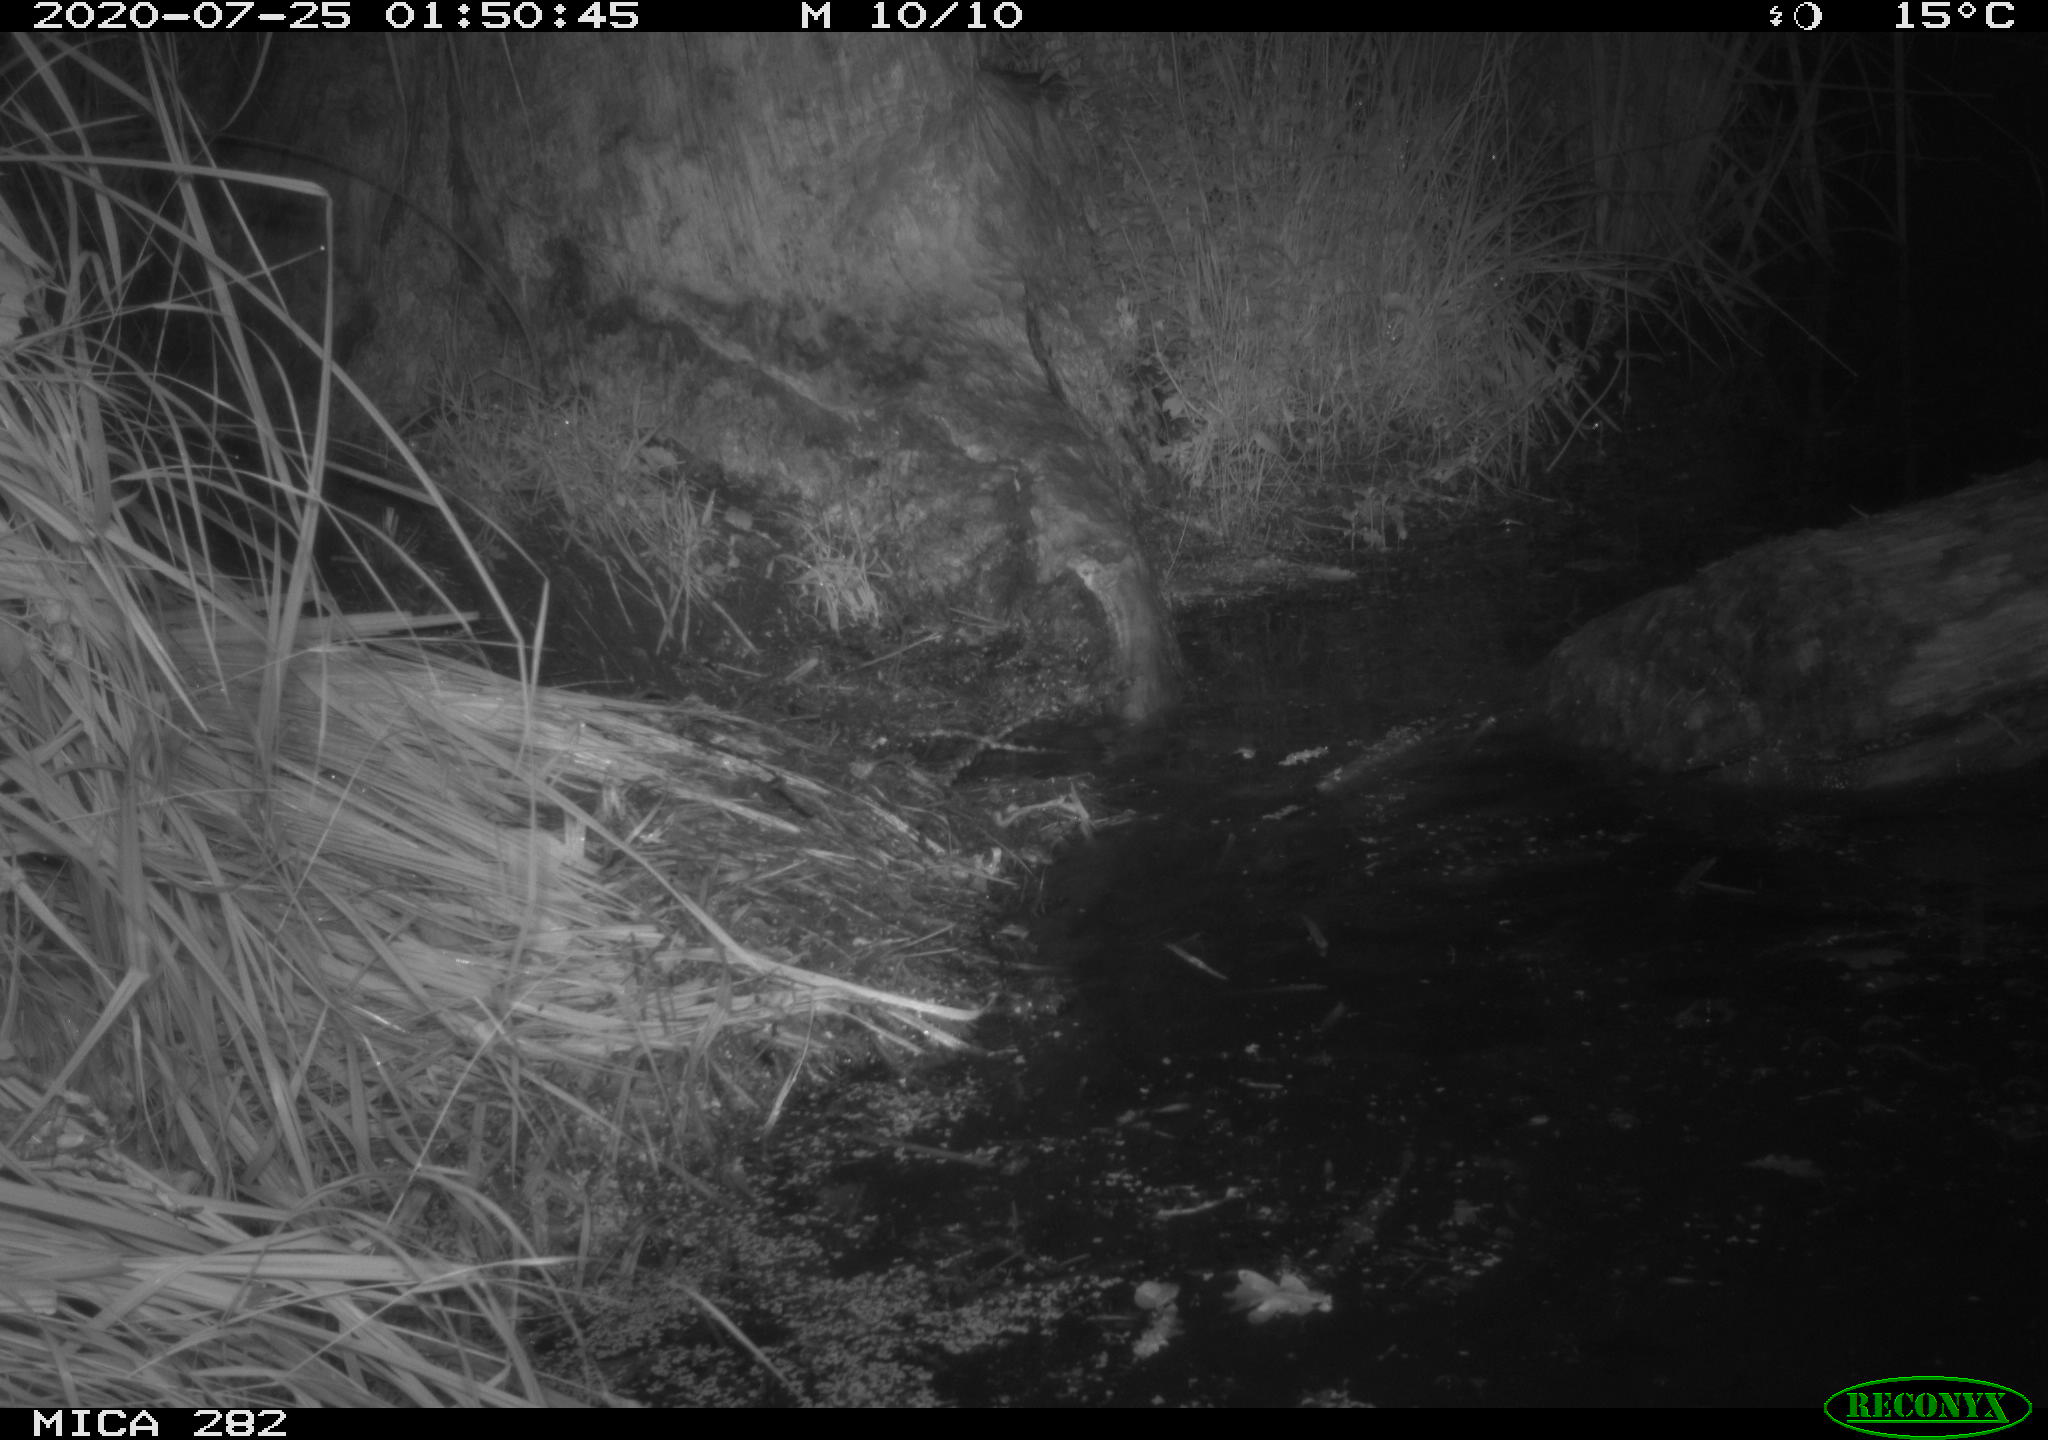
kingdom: Animalia
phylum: Chordata
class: Mammalia
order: Rodentia
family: Castoridae
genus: Castor
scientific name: Castor fiber
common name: Eurasian beaver
